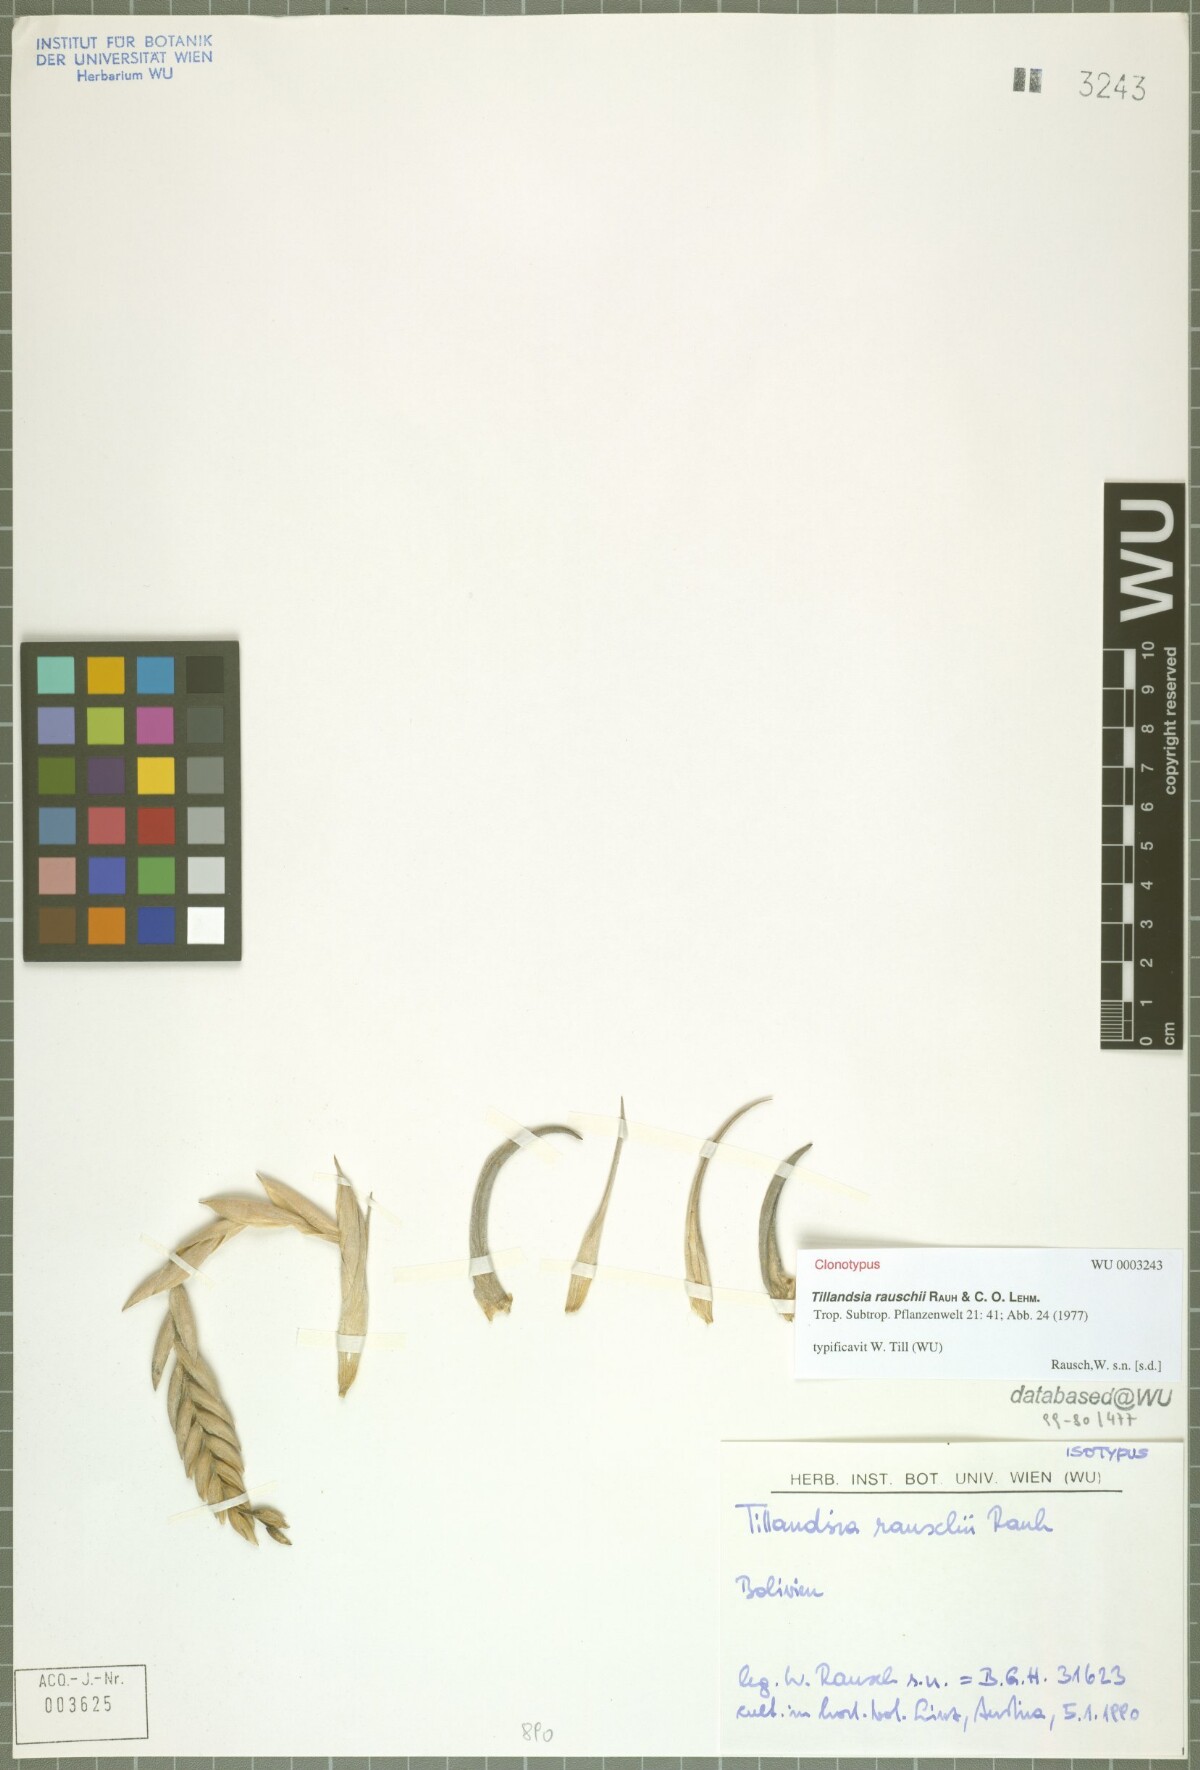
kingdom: Plantae
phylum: Tracheophyta
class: Liliopsida
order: Poales
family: Bromeliaceae
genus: Tillandsia
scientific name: Tillandsia rauschii
